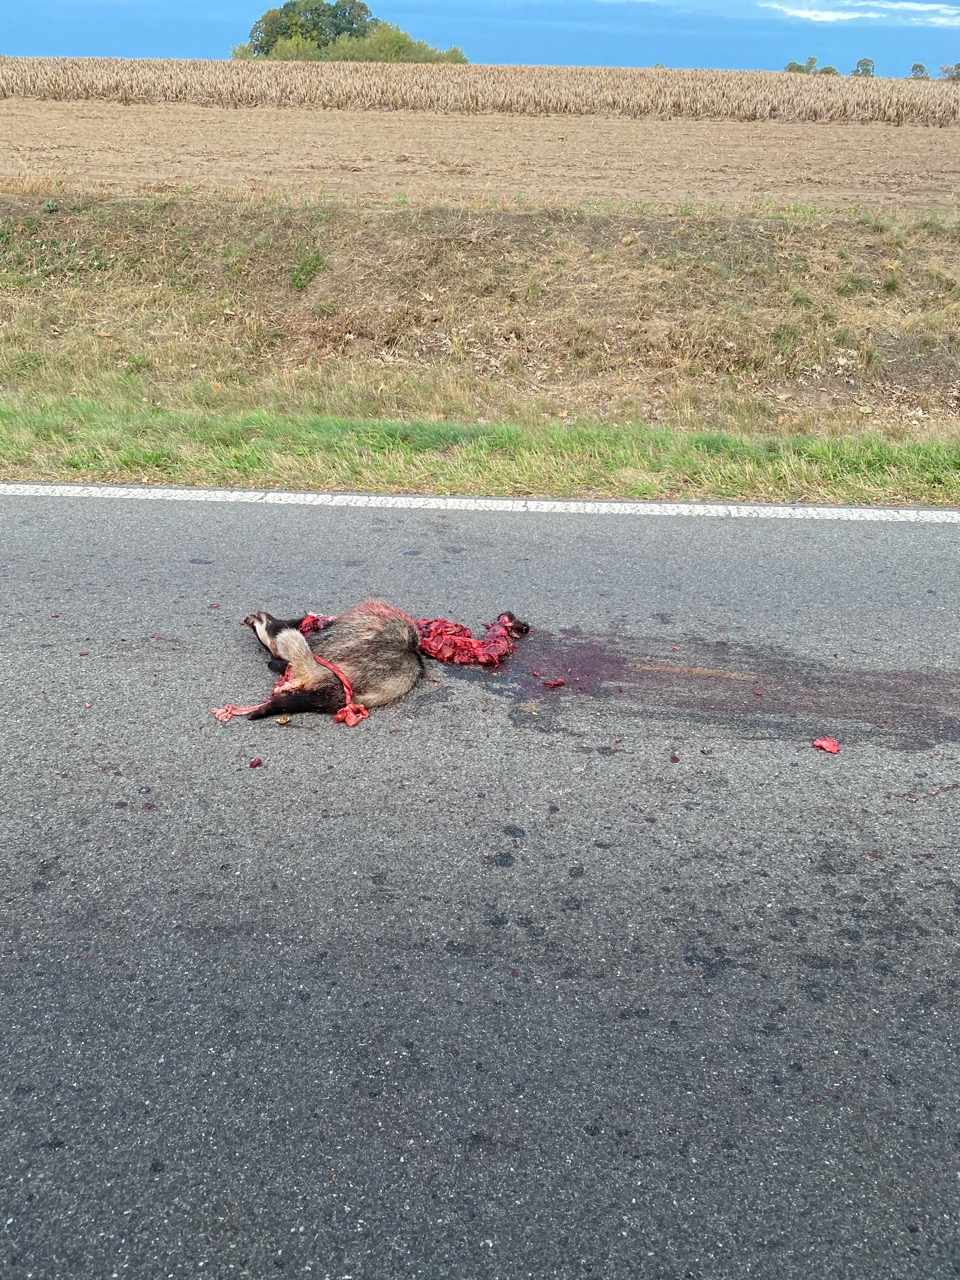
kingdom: Animalia
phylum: Chordata
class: Mammalia
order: Carnivora
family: Mustelidae
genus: Meles
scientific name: Meles meles
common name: Eurasian badger
